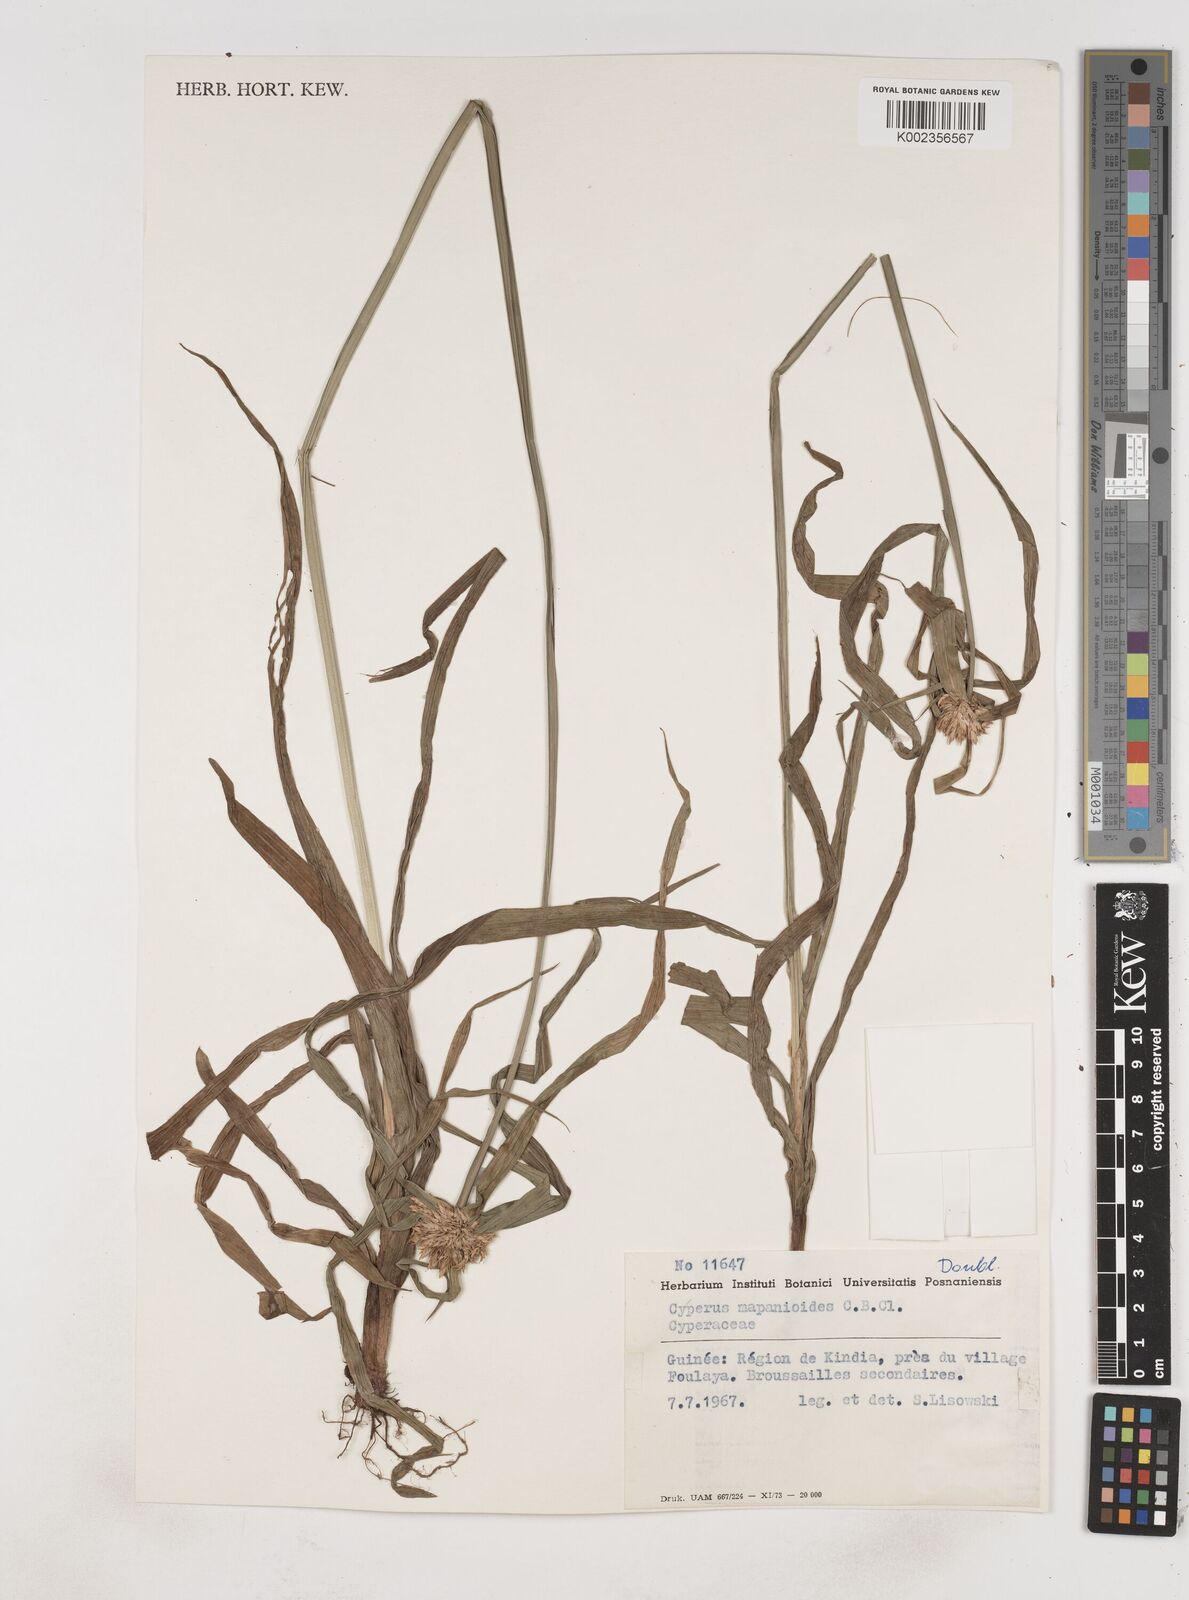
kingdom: Plantae
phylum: Tracheophyta
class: Liliopsida
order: Poales
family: Cyperaceae
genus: Cyperus
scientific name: Cyperus mapanioides
